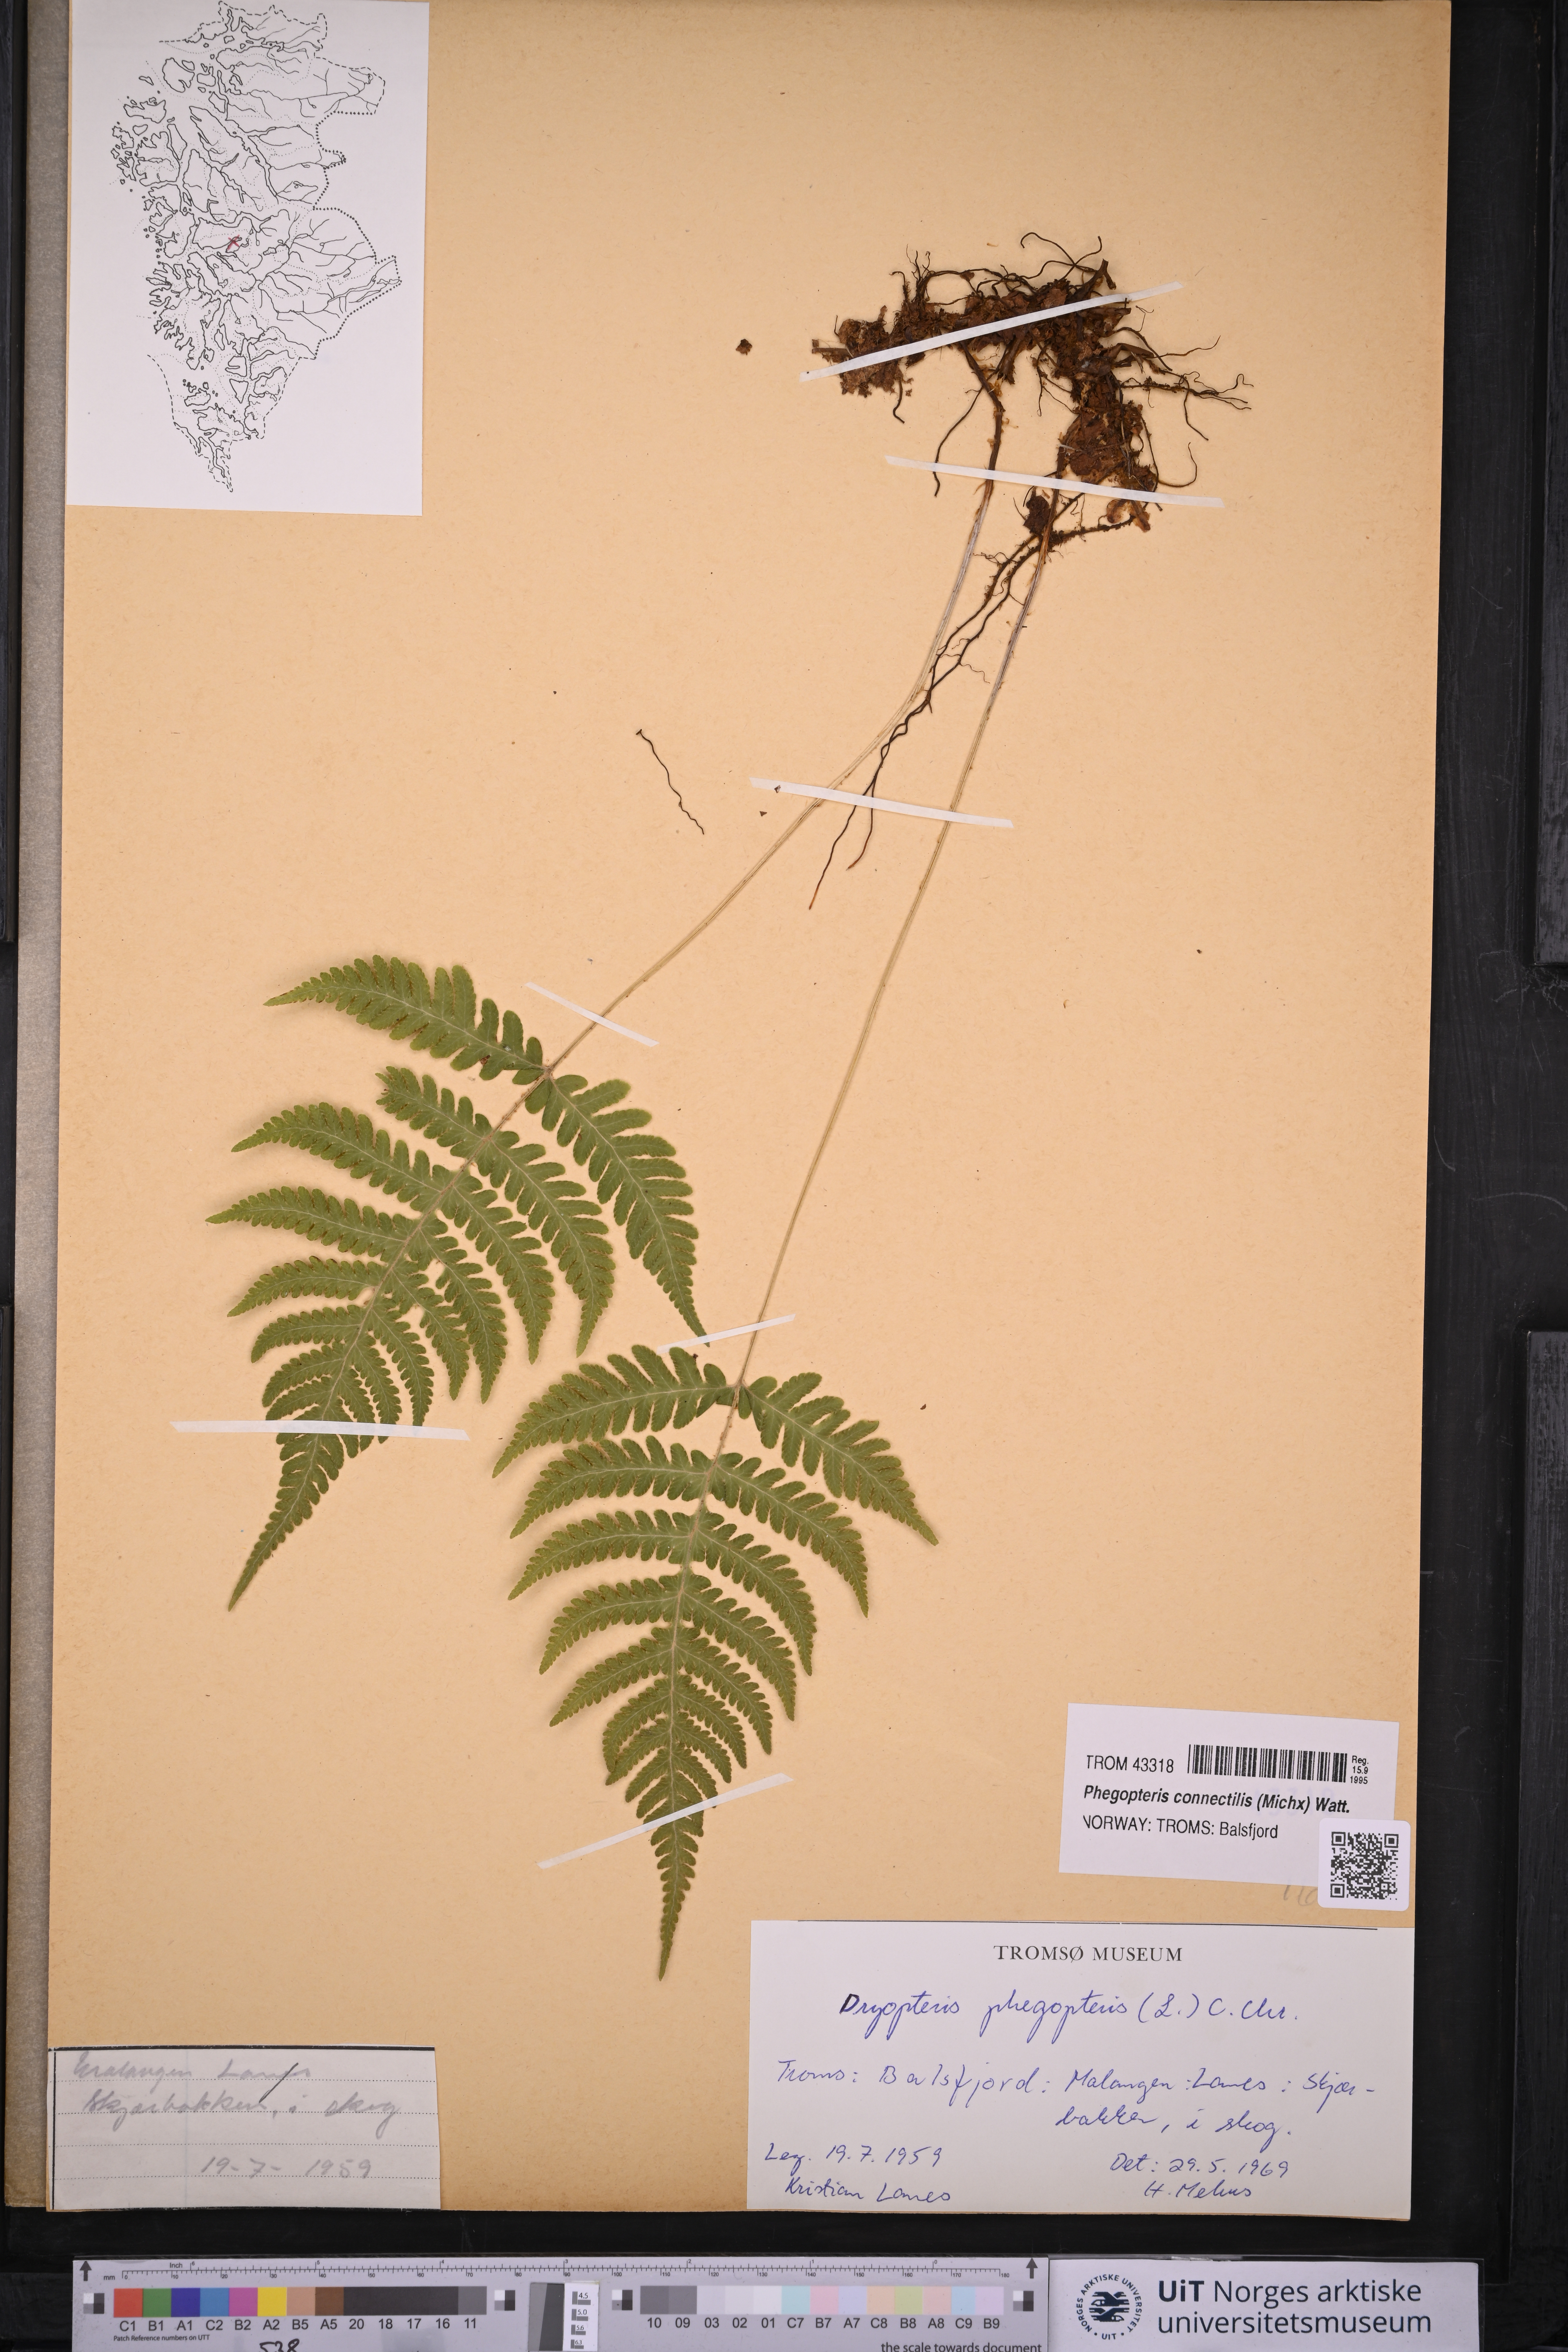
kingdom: Plantae
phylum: Tracheophyta
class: Polypodiopsida
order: Polypodiales
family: Thelypteridaceae
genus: Phegopteris
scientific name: Phegopteris connectilis
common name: Beech fern
